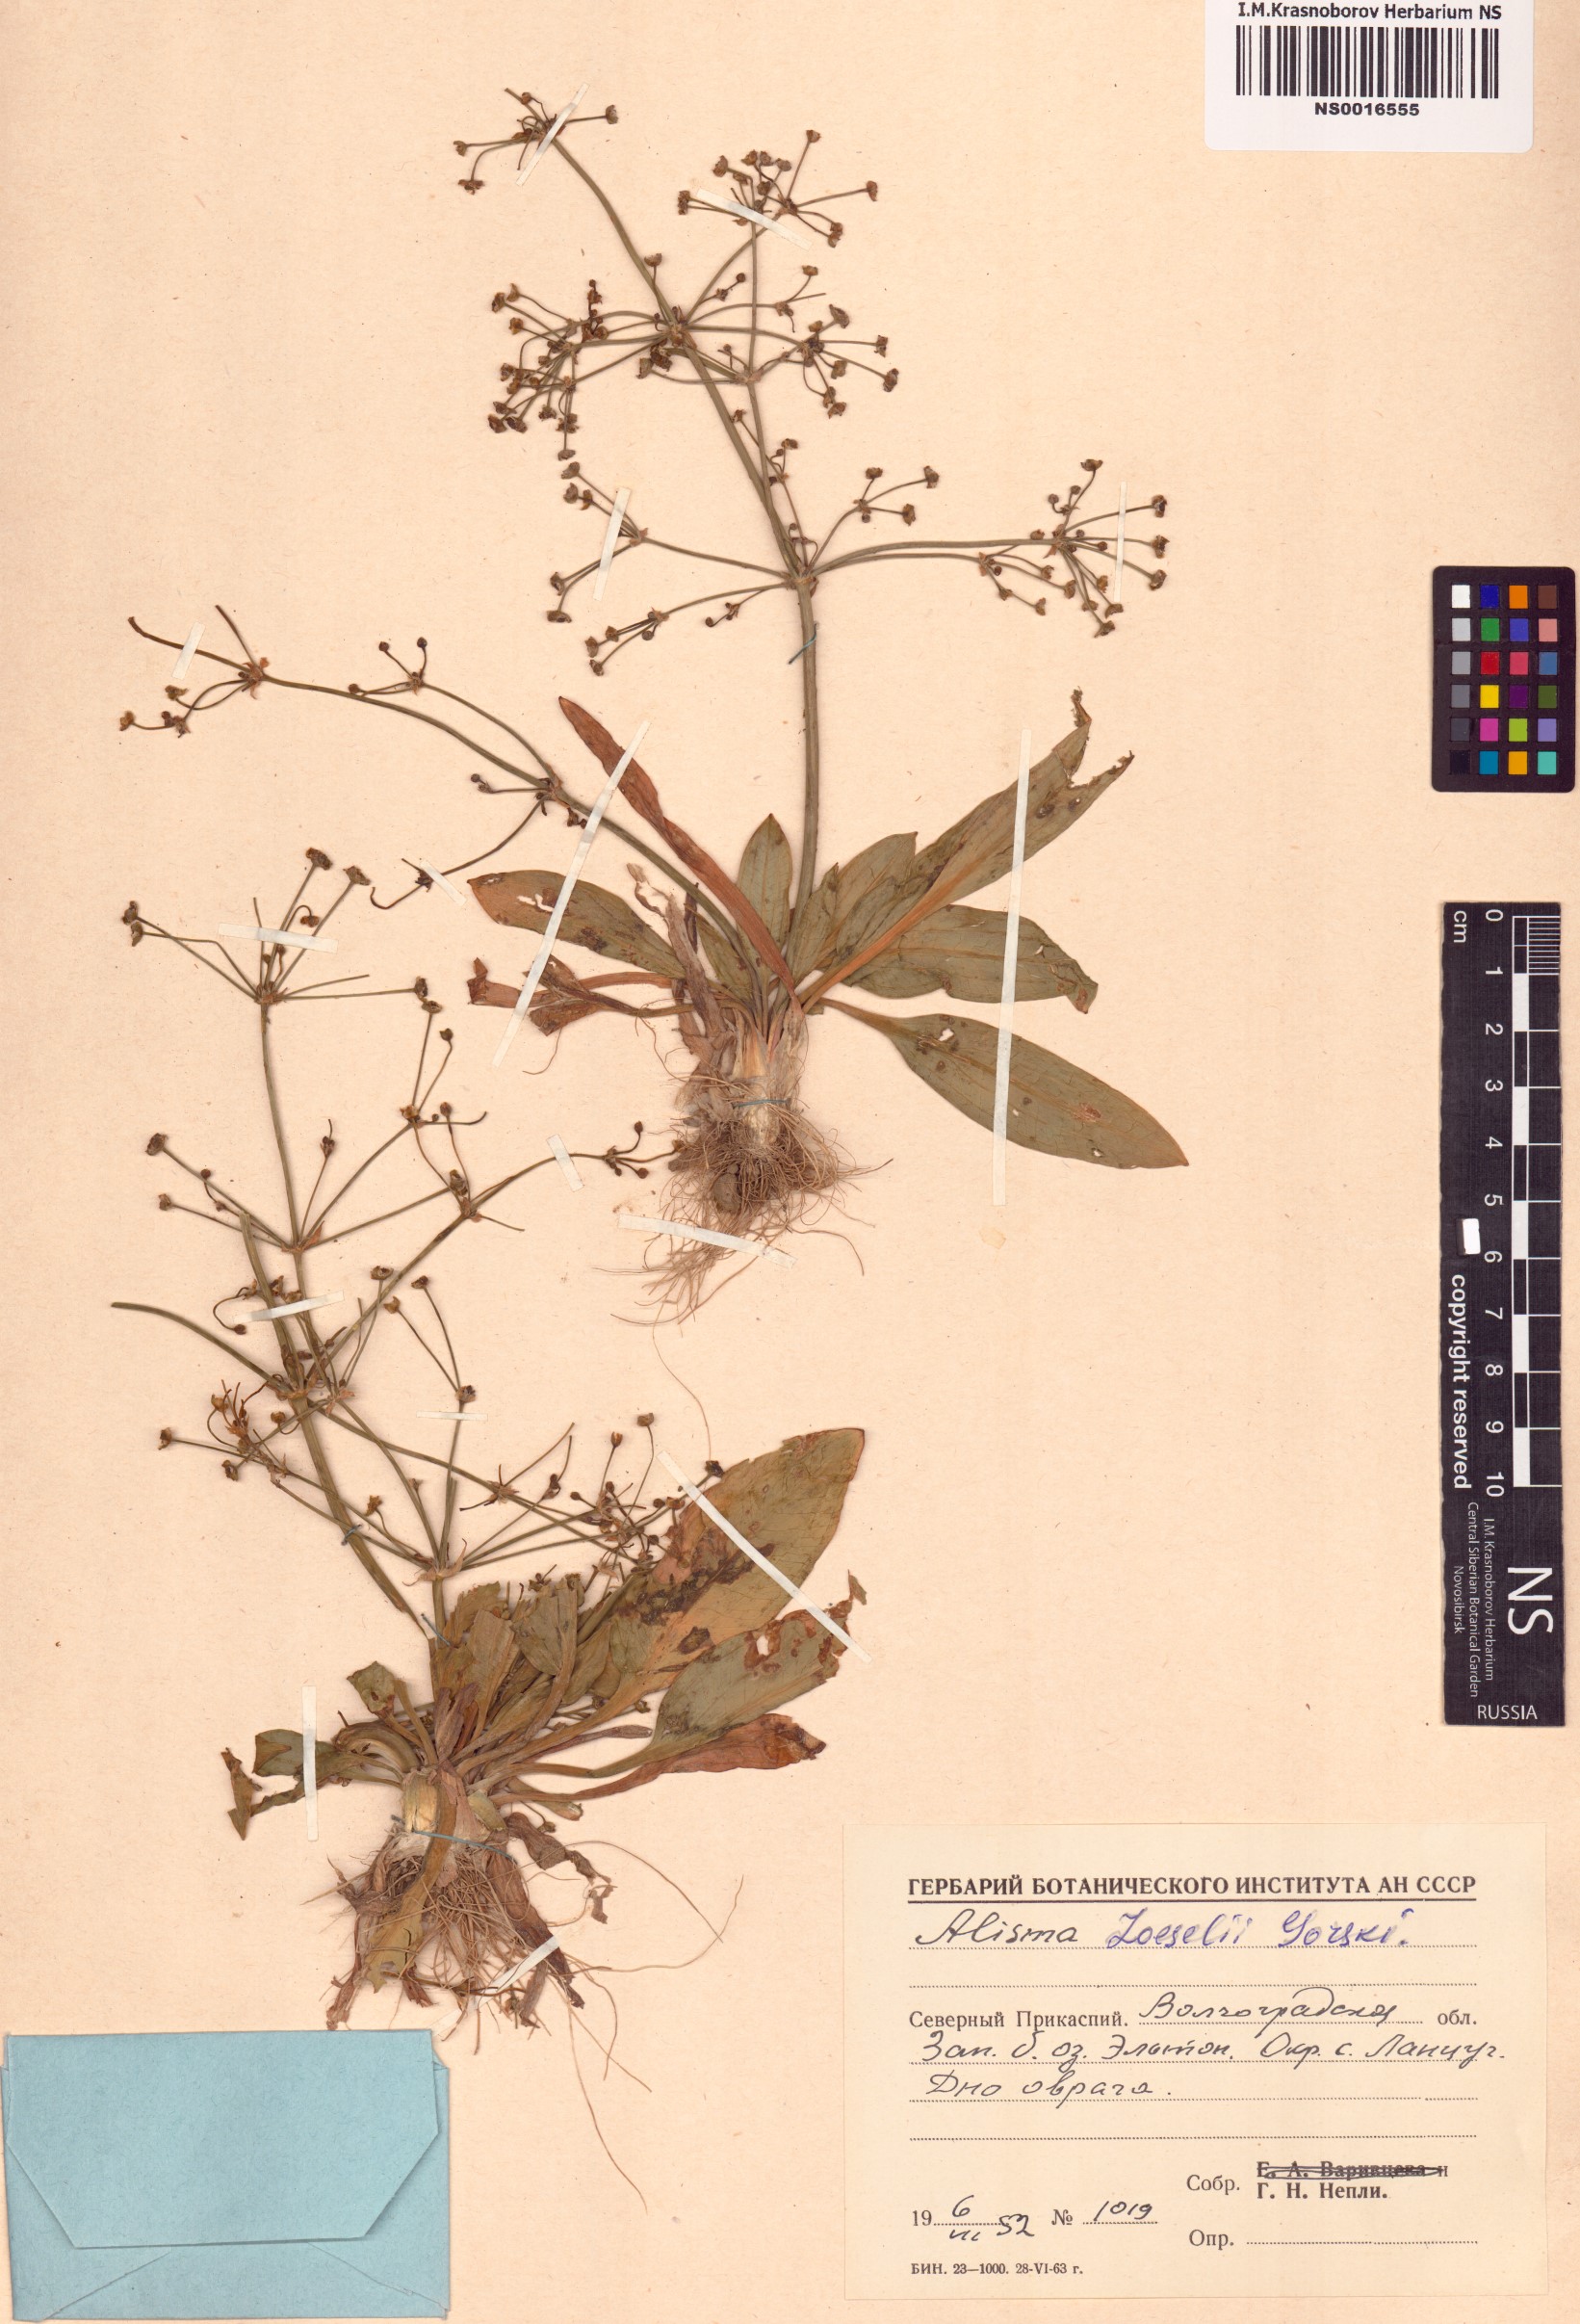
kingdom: Plantae
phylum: Tracheophyta
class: Liliopsida
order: Alismatales
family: Alismataceae
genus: Alisma
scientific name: Alisma gramineum
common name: Ribbon-leaved water-plantain
